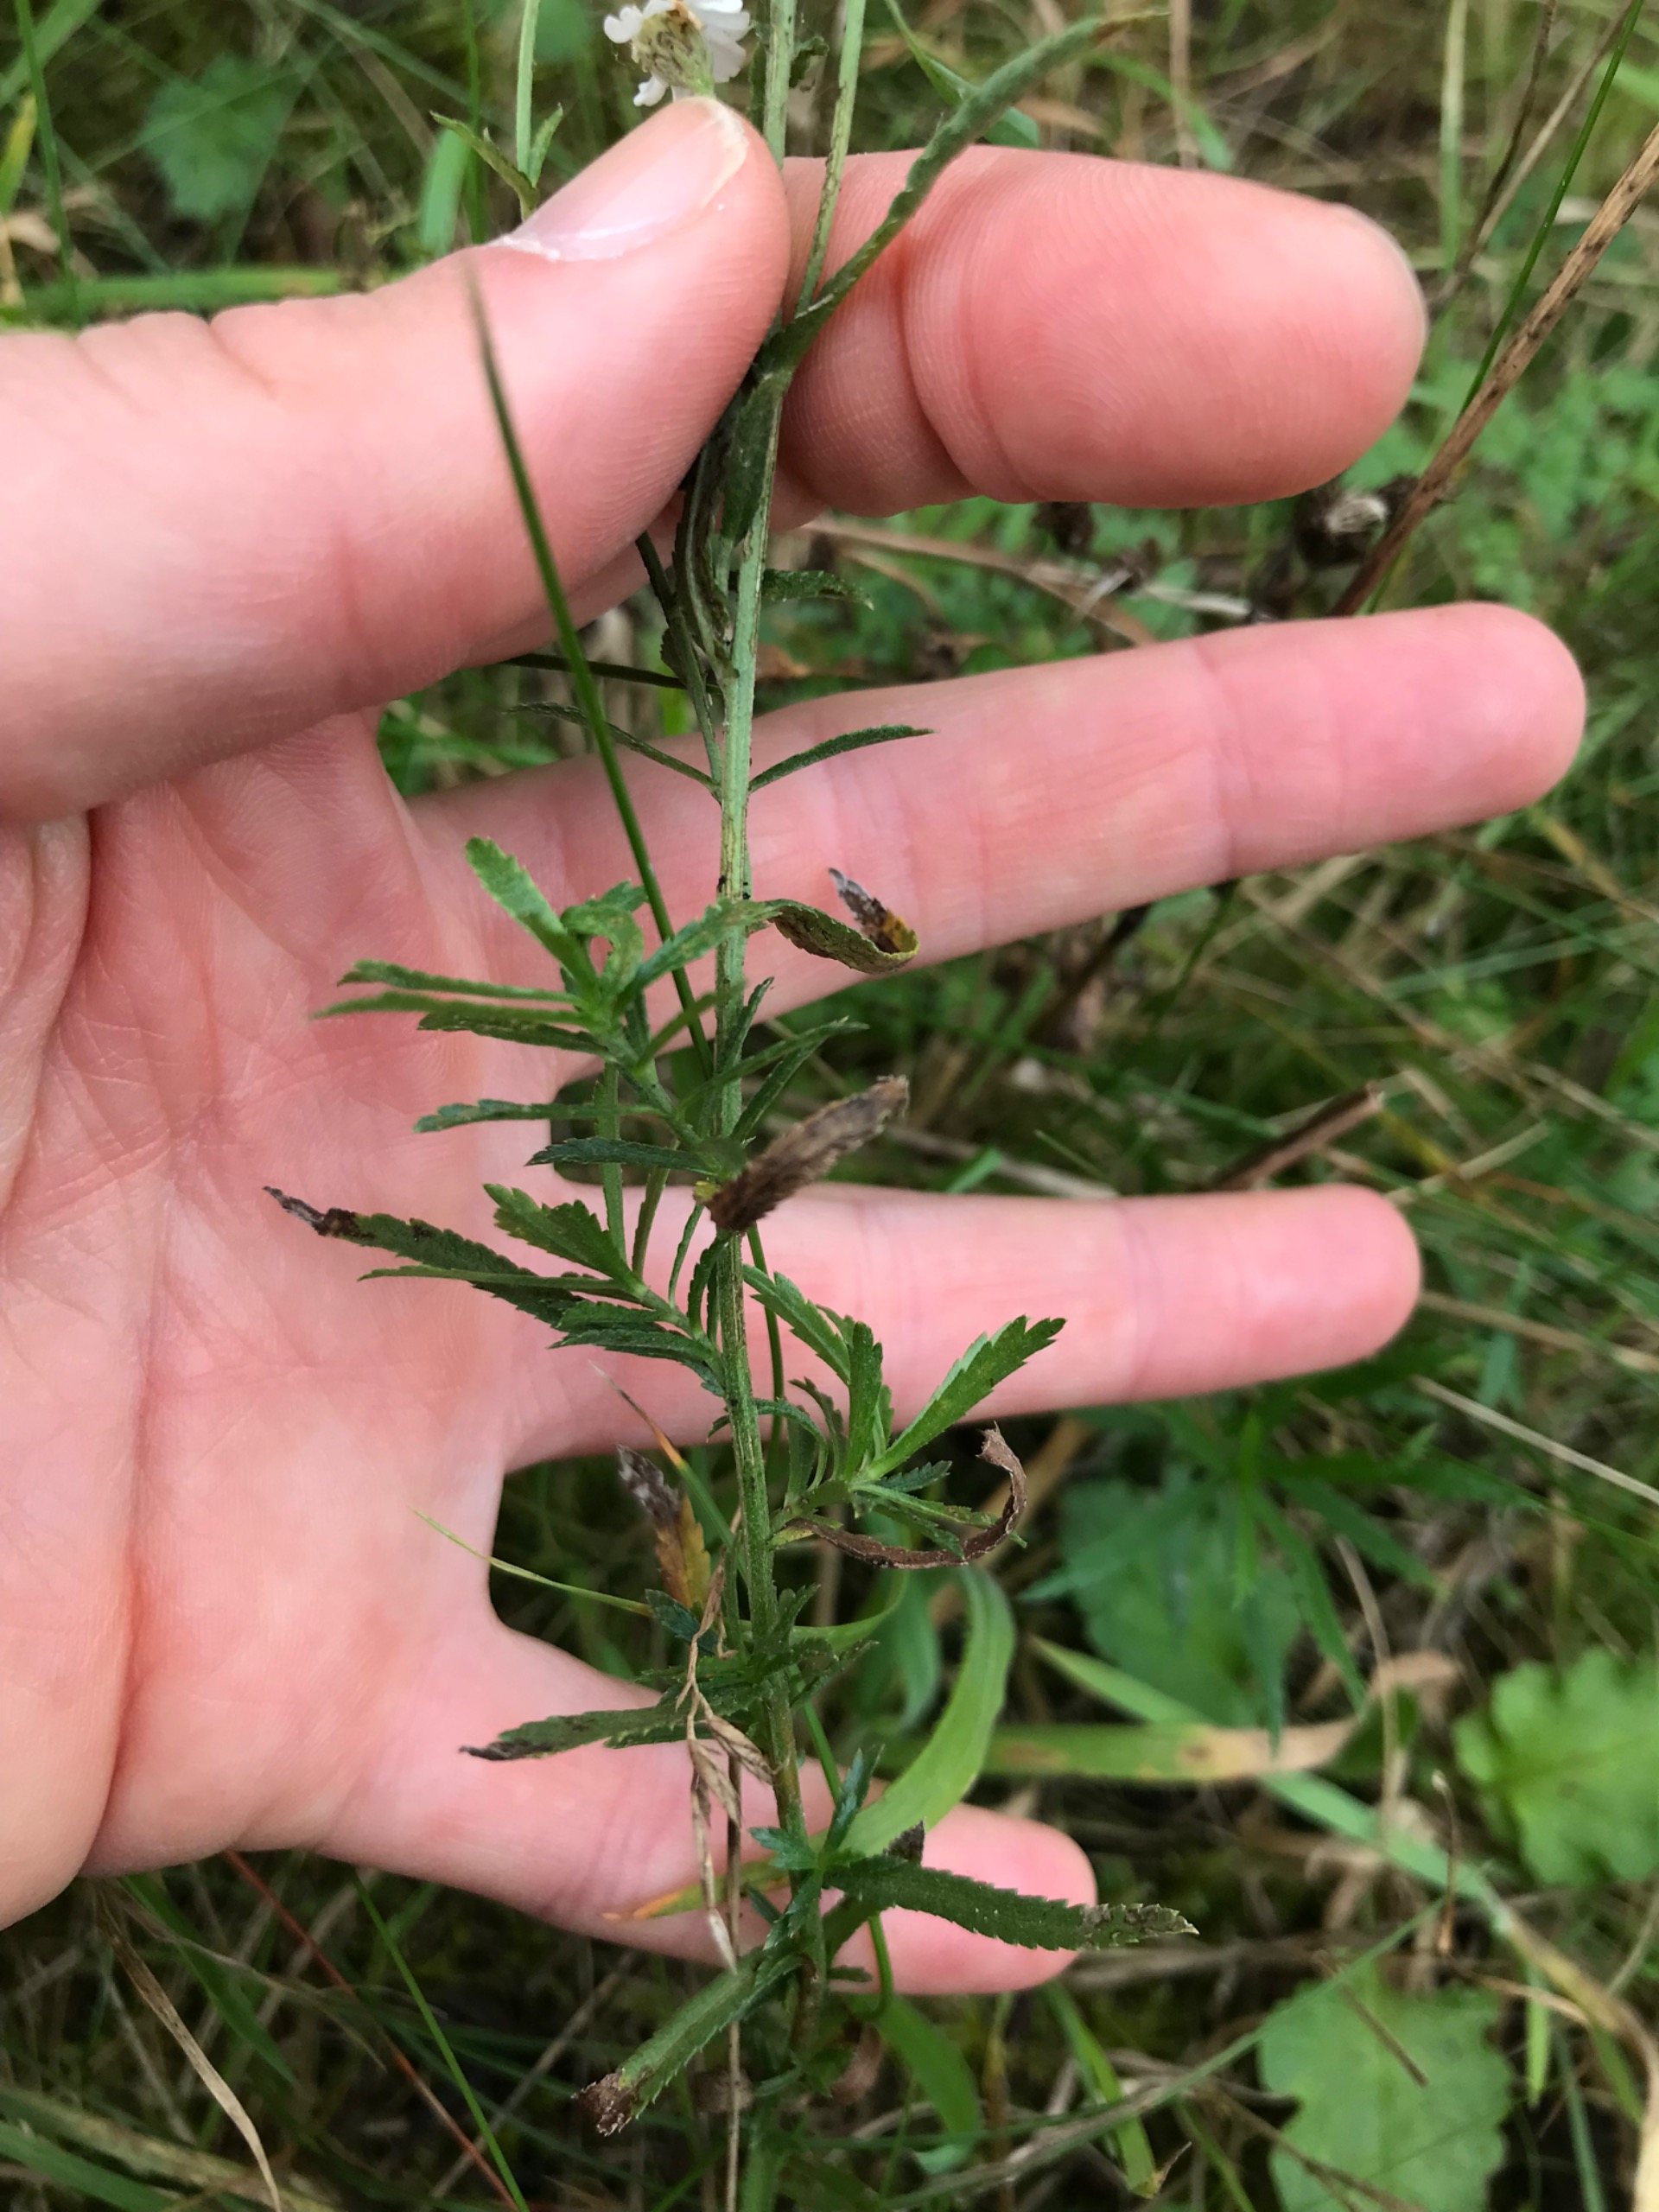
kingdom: Plantae
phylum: Tracheophyta
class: Magnoliopsida
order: Asterales
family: Asteraceae
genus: Achillea
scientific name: Achillea ptarmica
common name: Nyse-røllike
